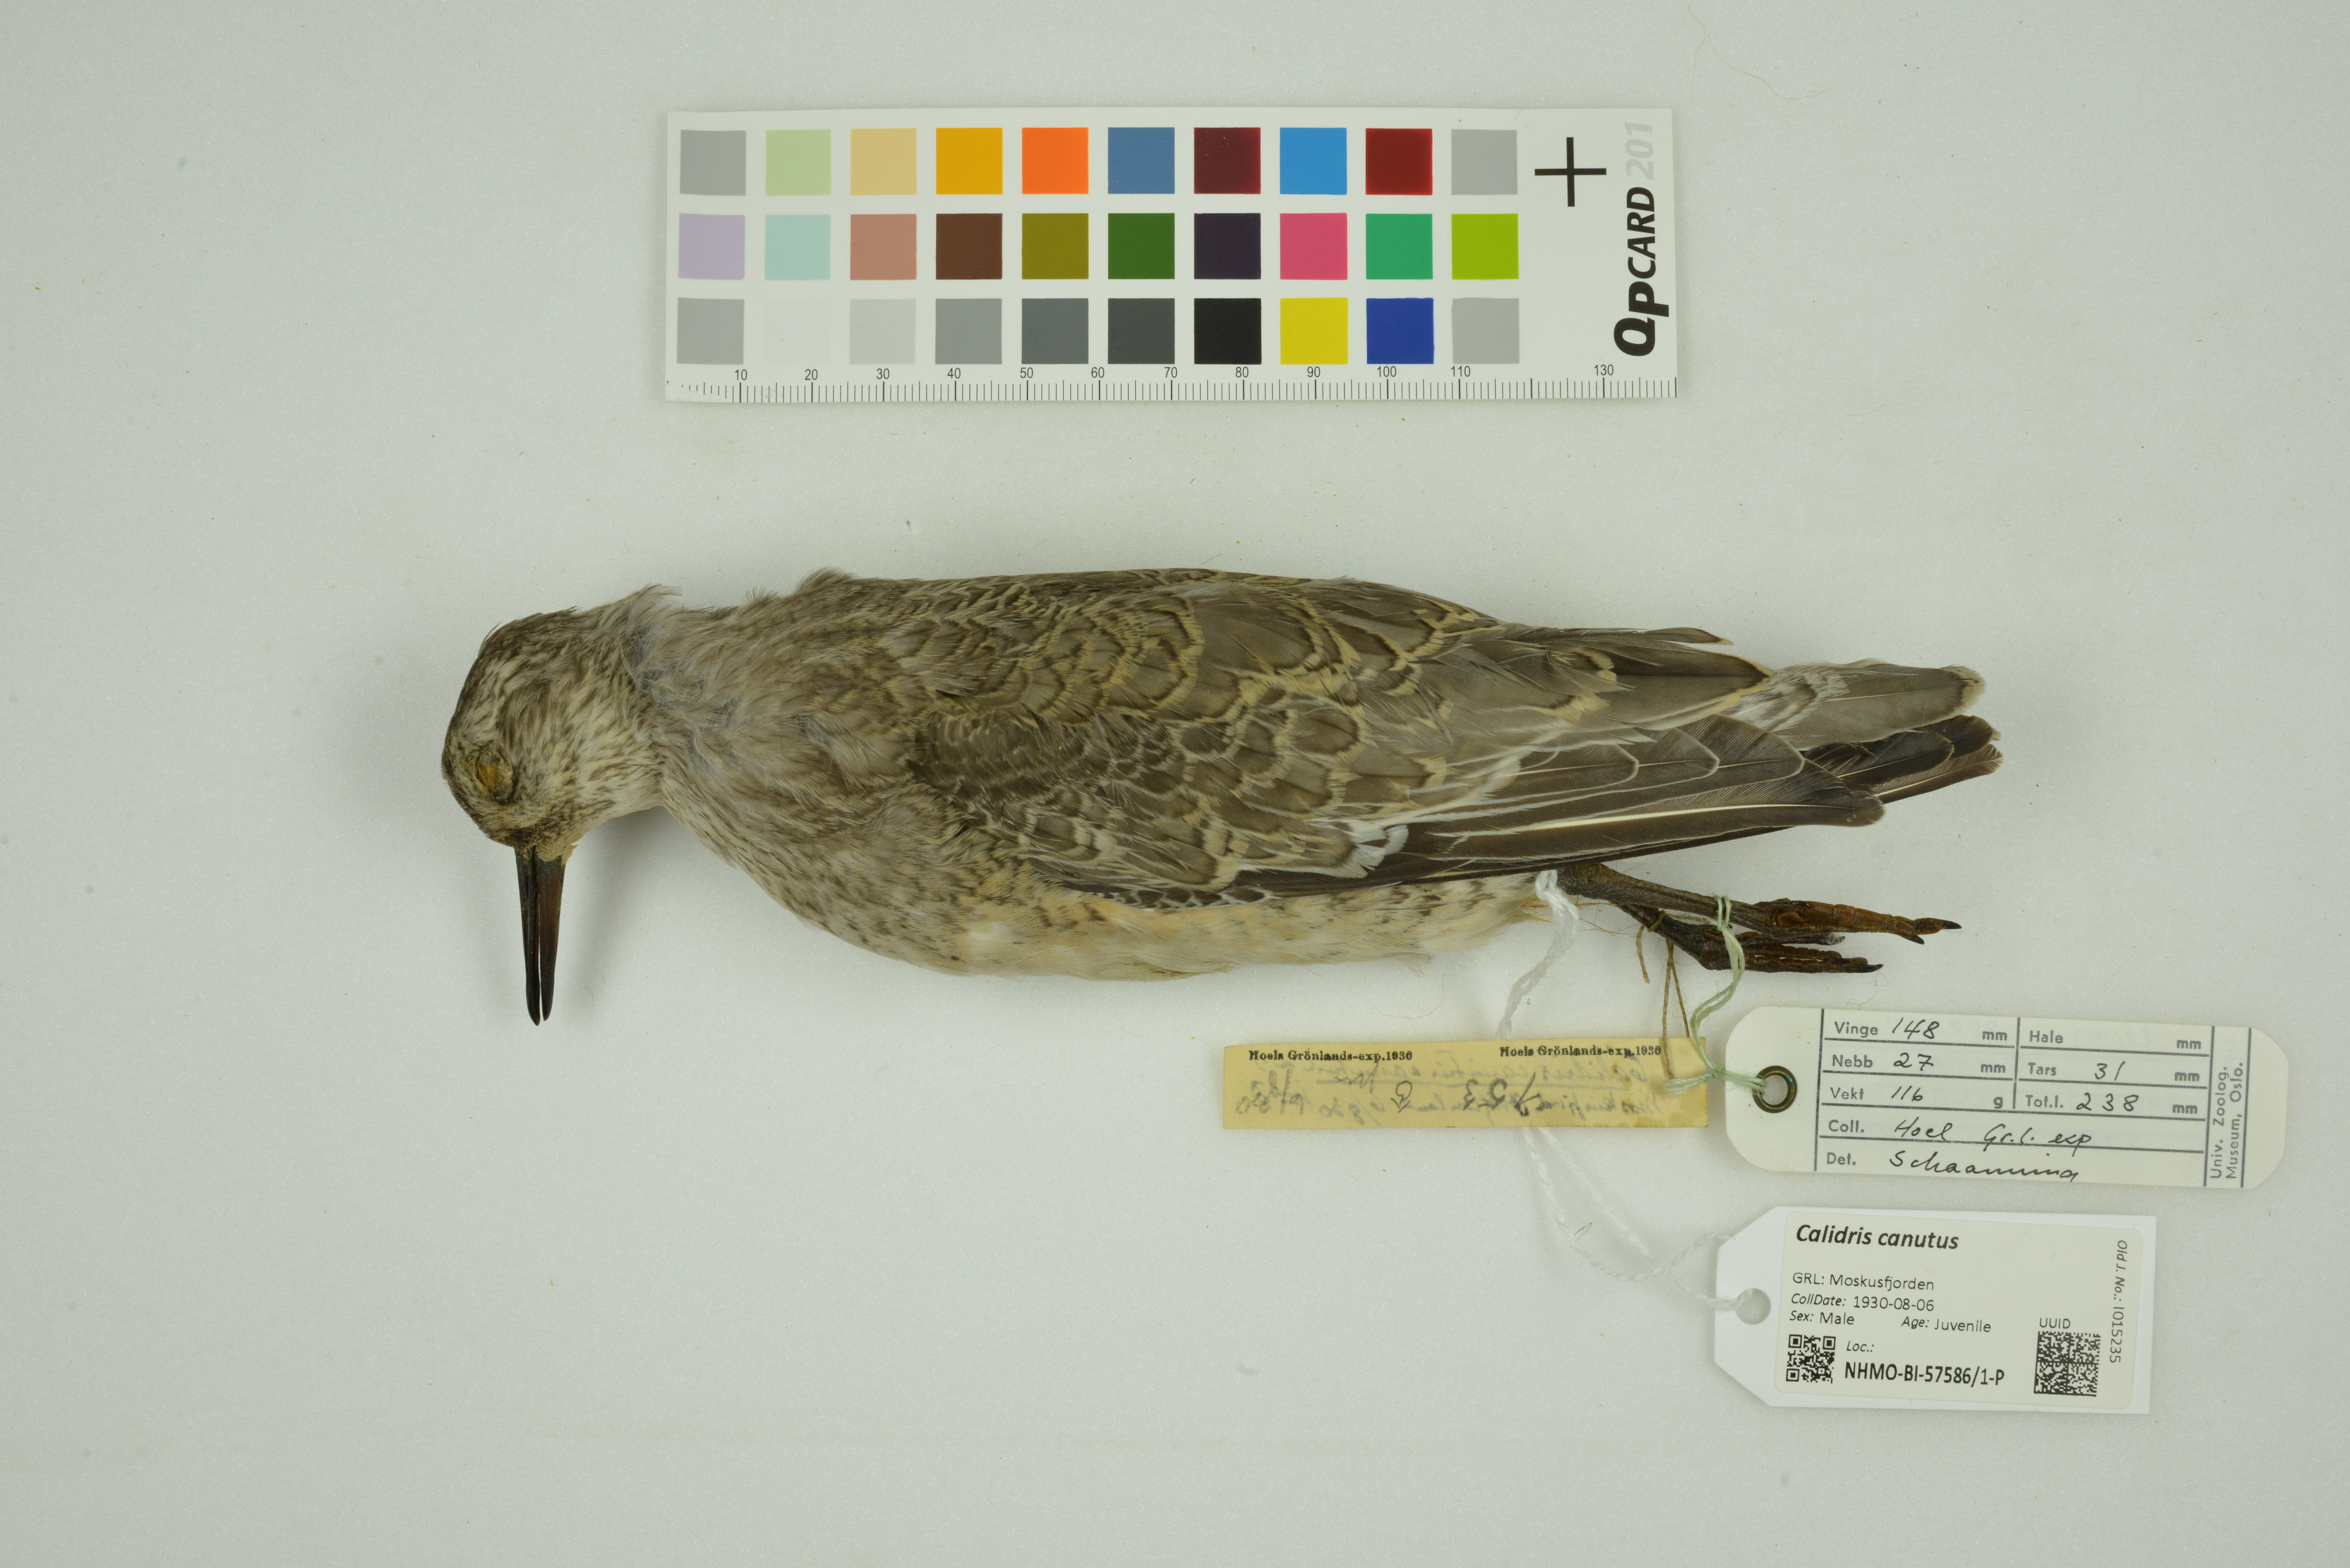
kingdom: Animalia
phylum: Chordata
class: Aves
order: Charadriiformes
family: Scolopacidae
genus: Calidris
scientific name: Calidris canutus
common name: Red knot
